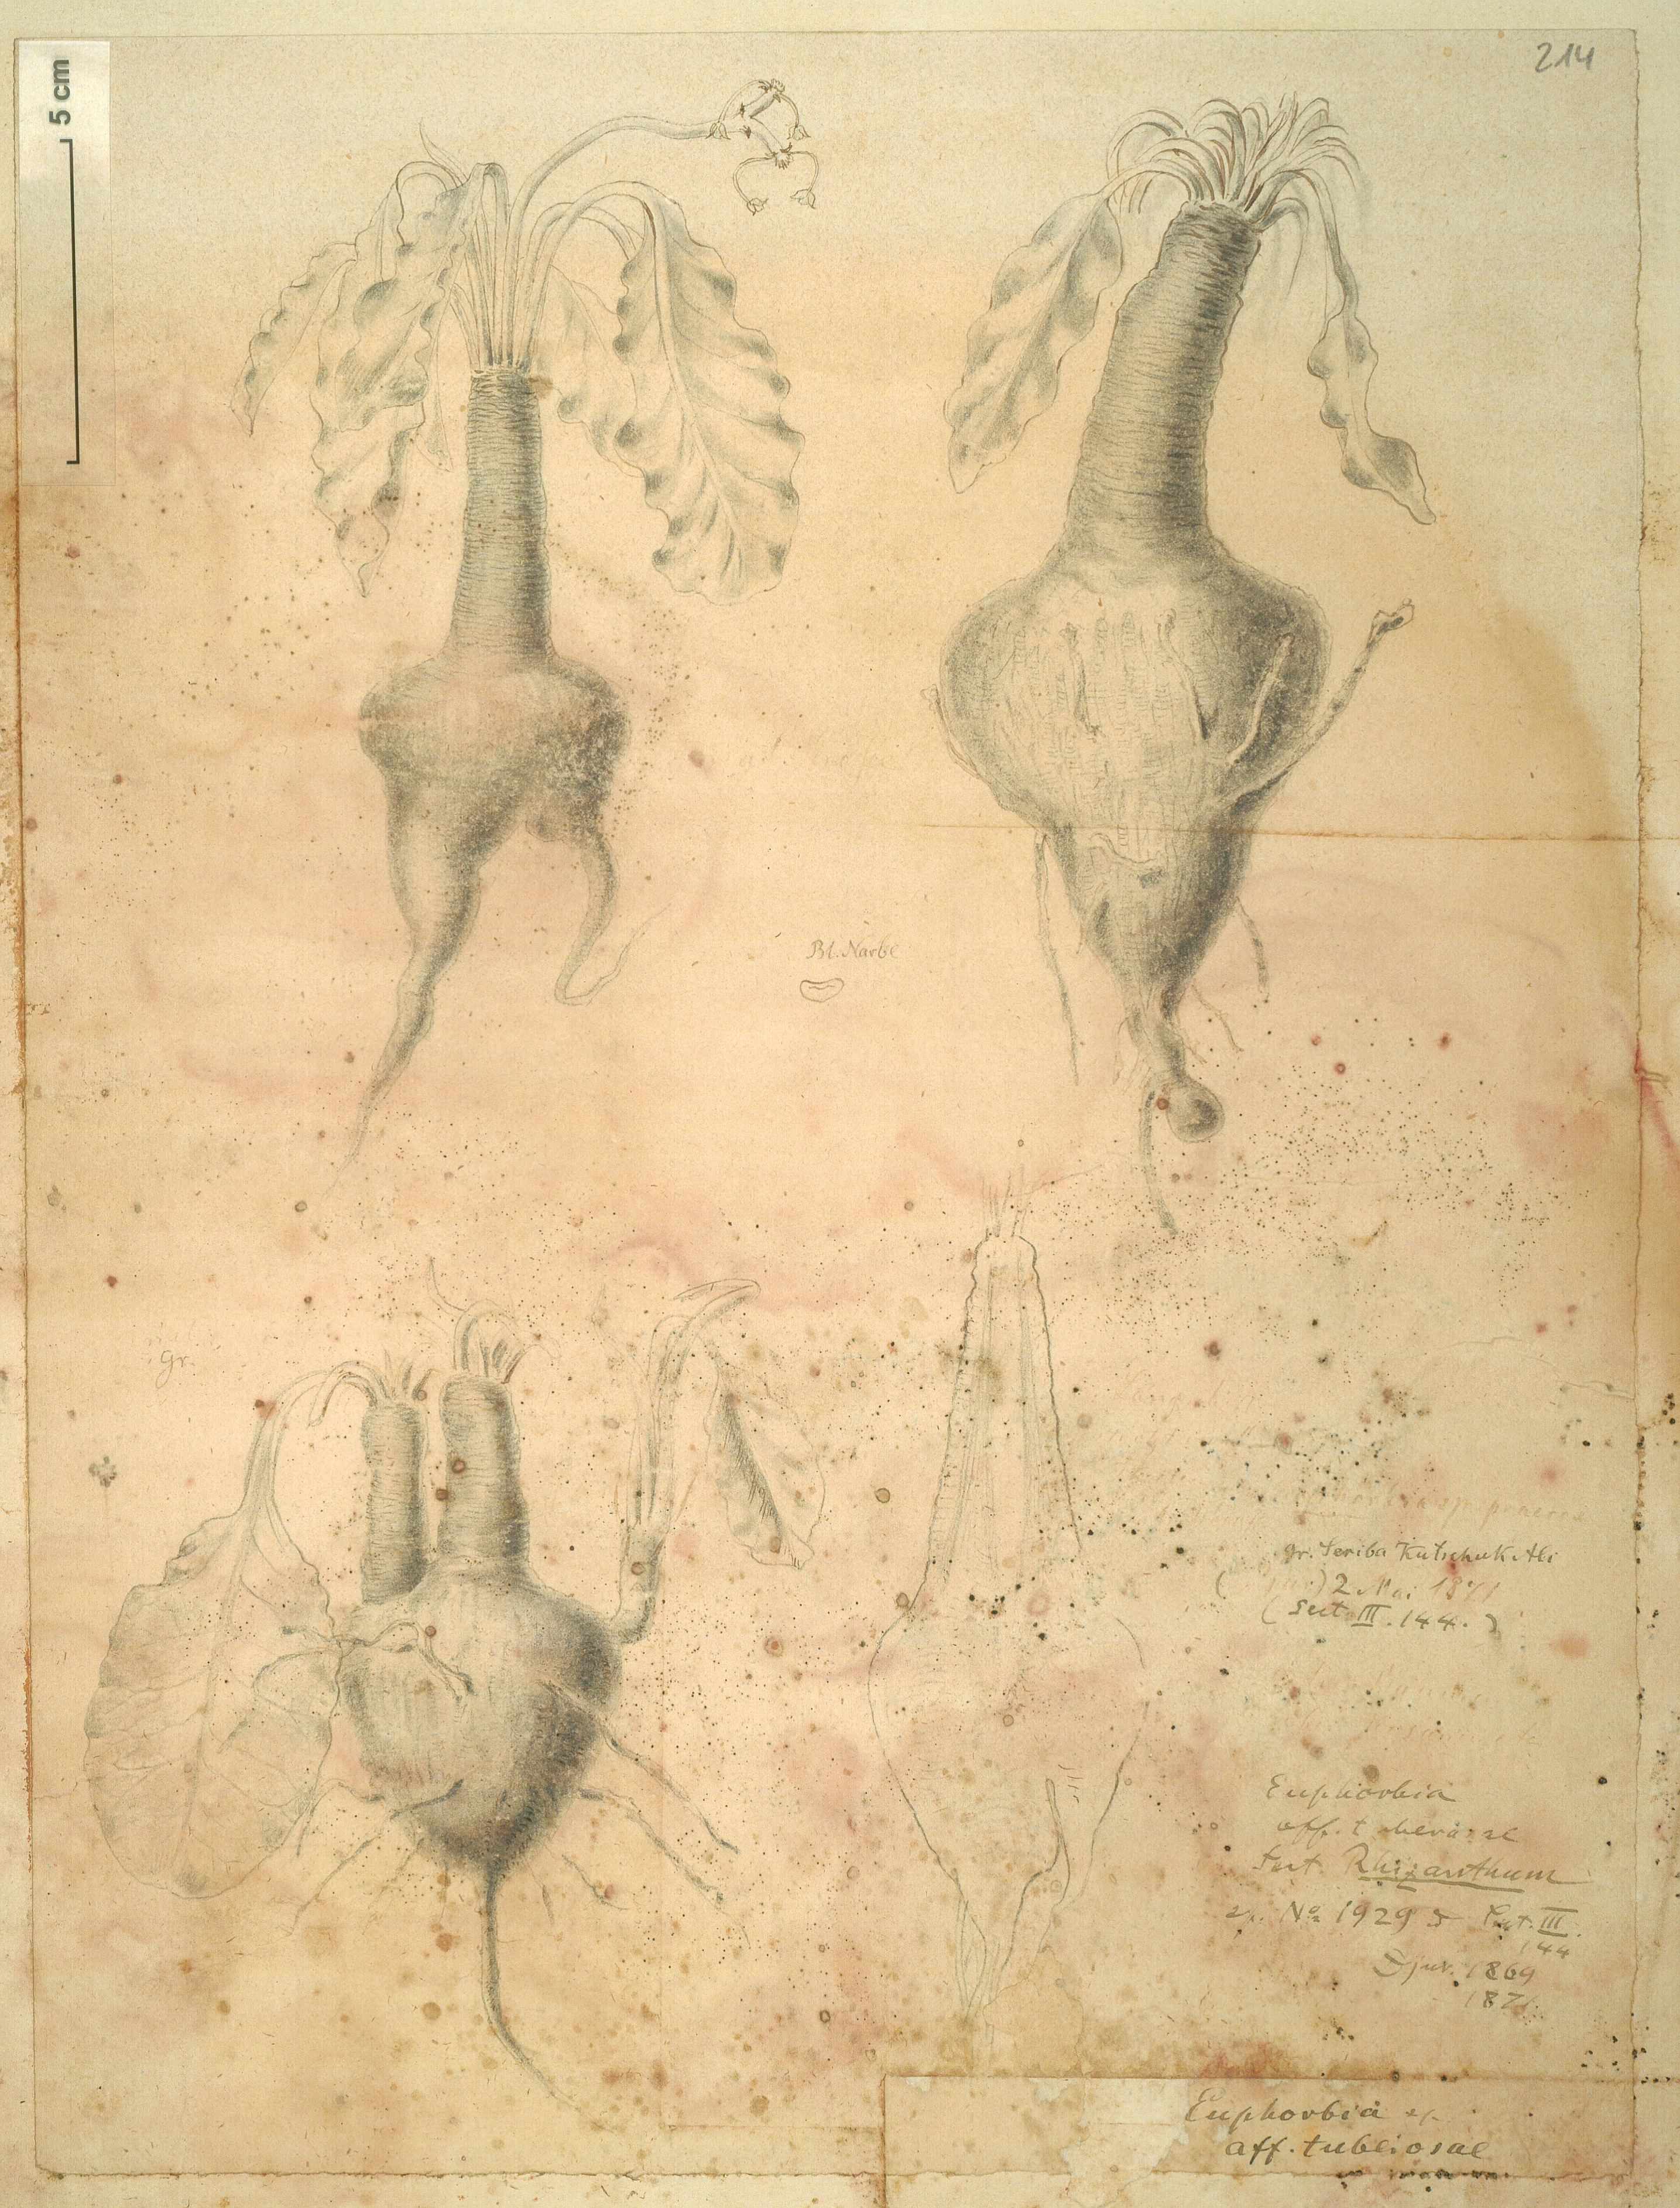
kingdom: Plantae
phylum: Tracheophyta
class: Magnoliopsida
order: Malpighiales
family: Euphorbiaceae
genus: Euphorbia
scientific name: Euphorbia tuberosa
